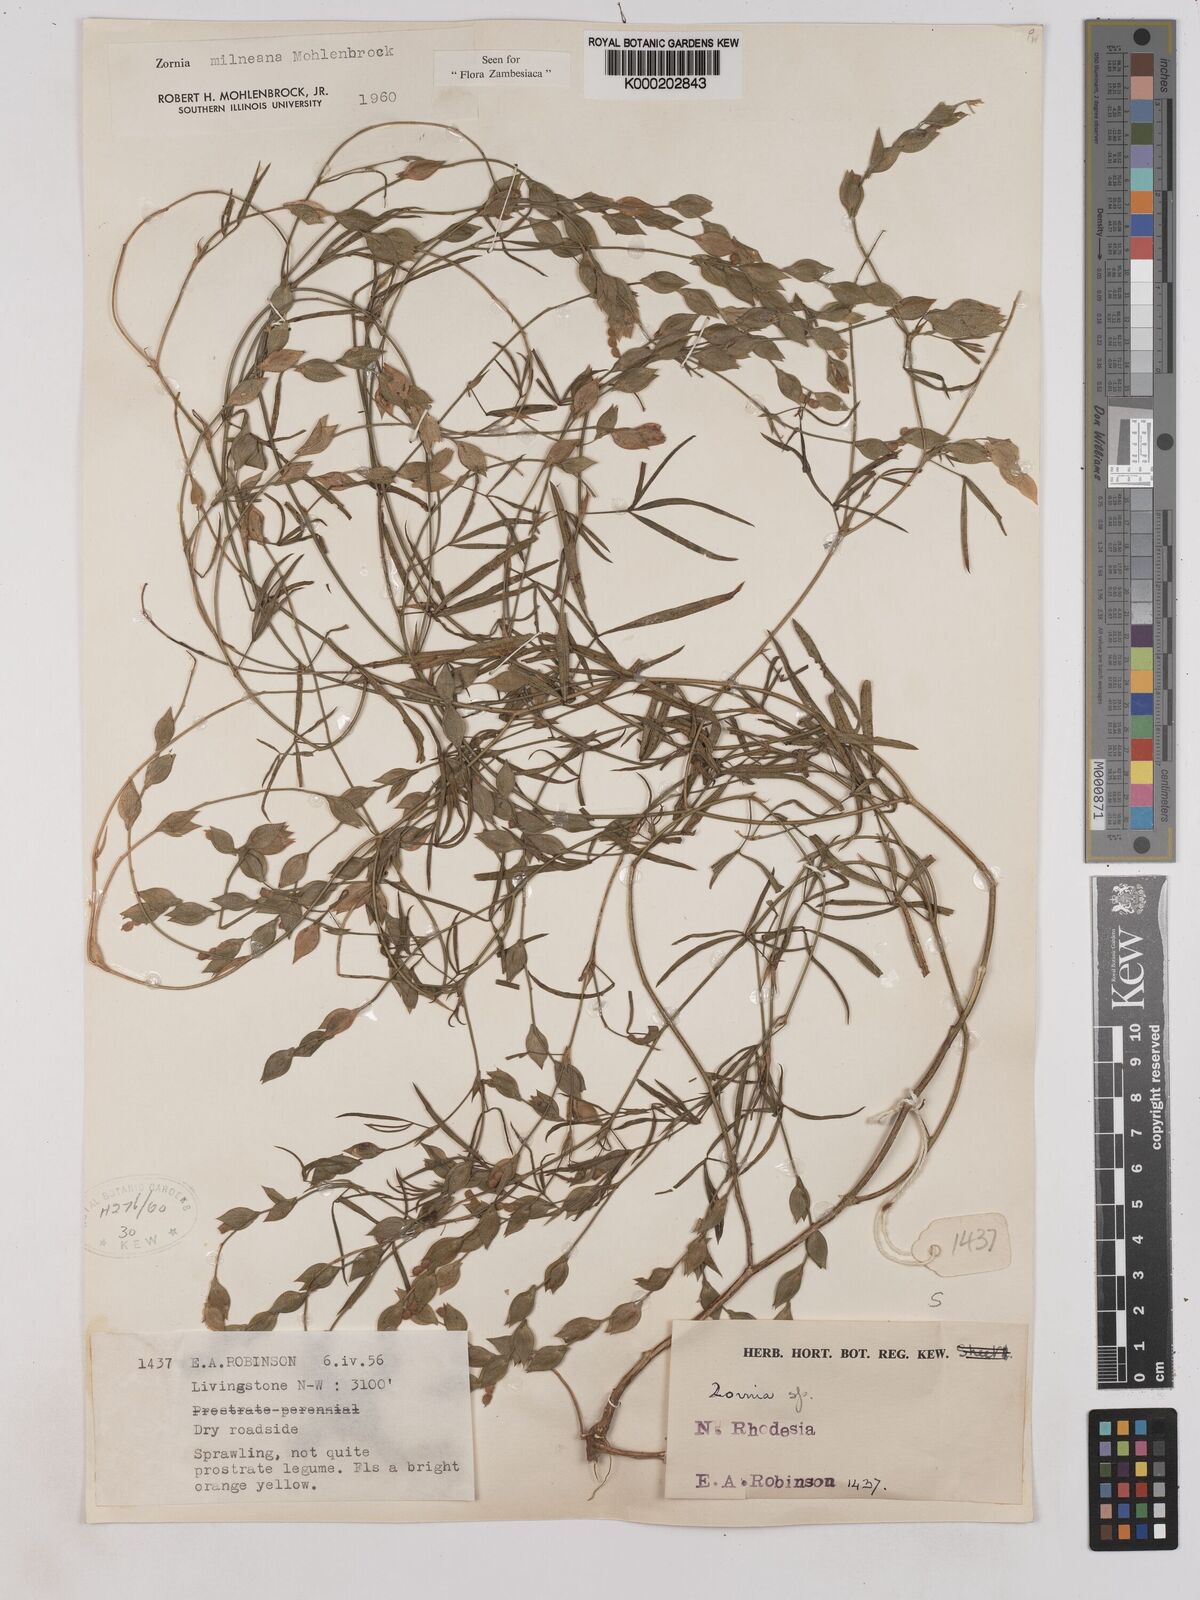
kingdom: Plantae
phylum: Tracheophyta
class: Magnoliopsida
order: Fabales
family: Fabaceae
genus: Zornia
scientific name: Zornia milneana
